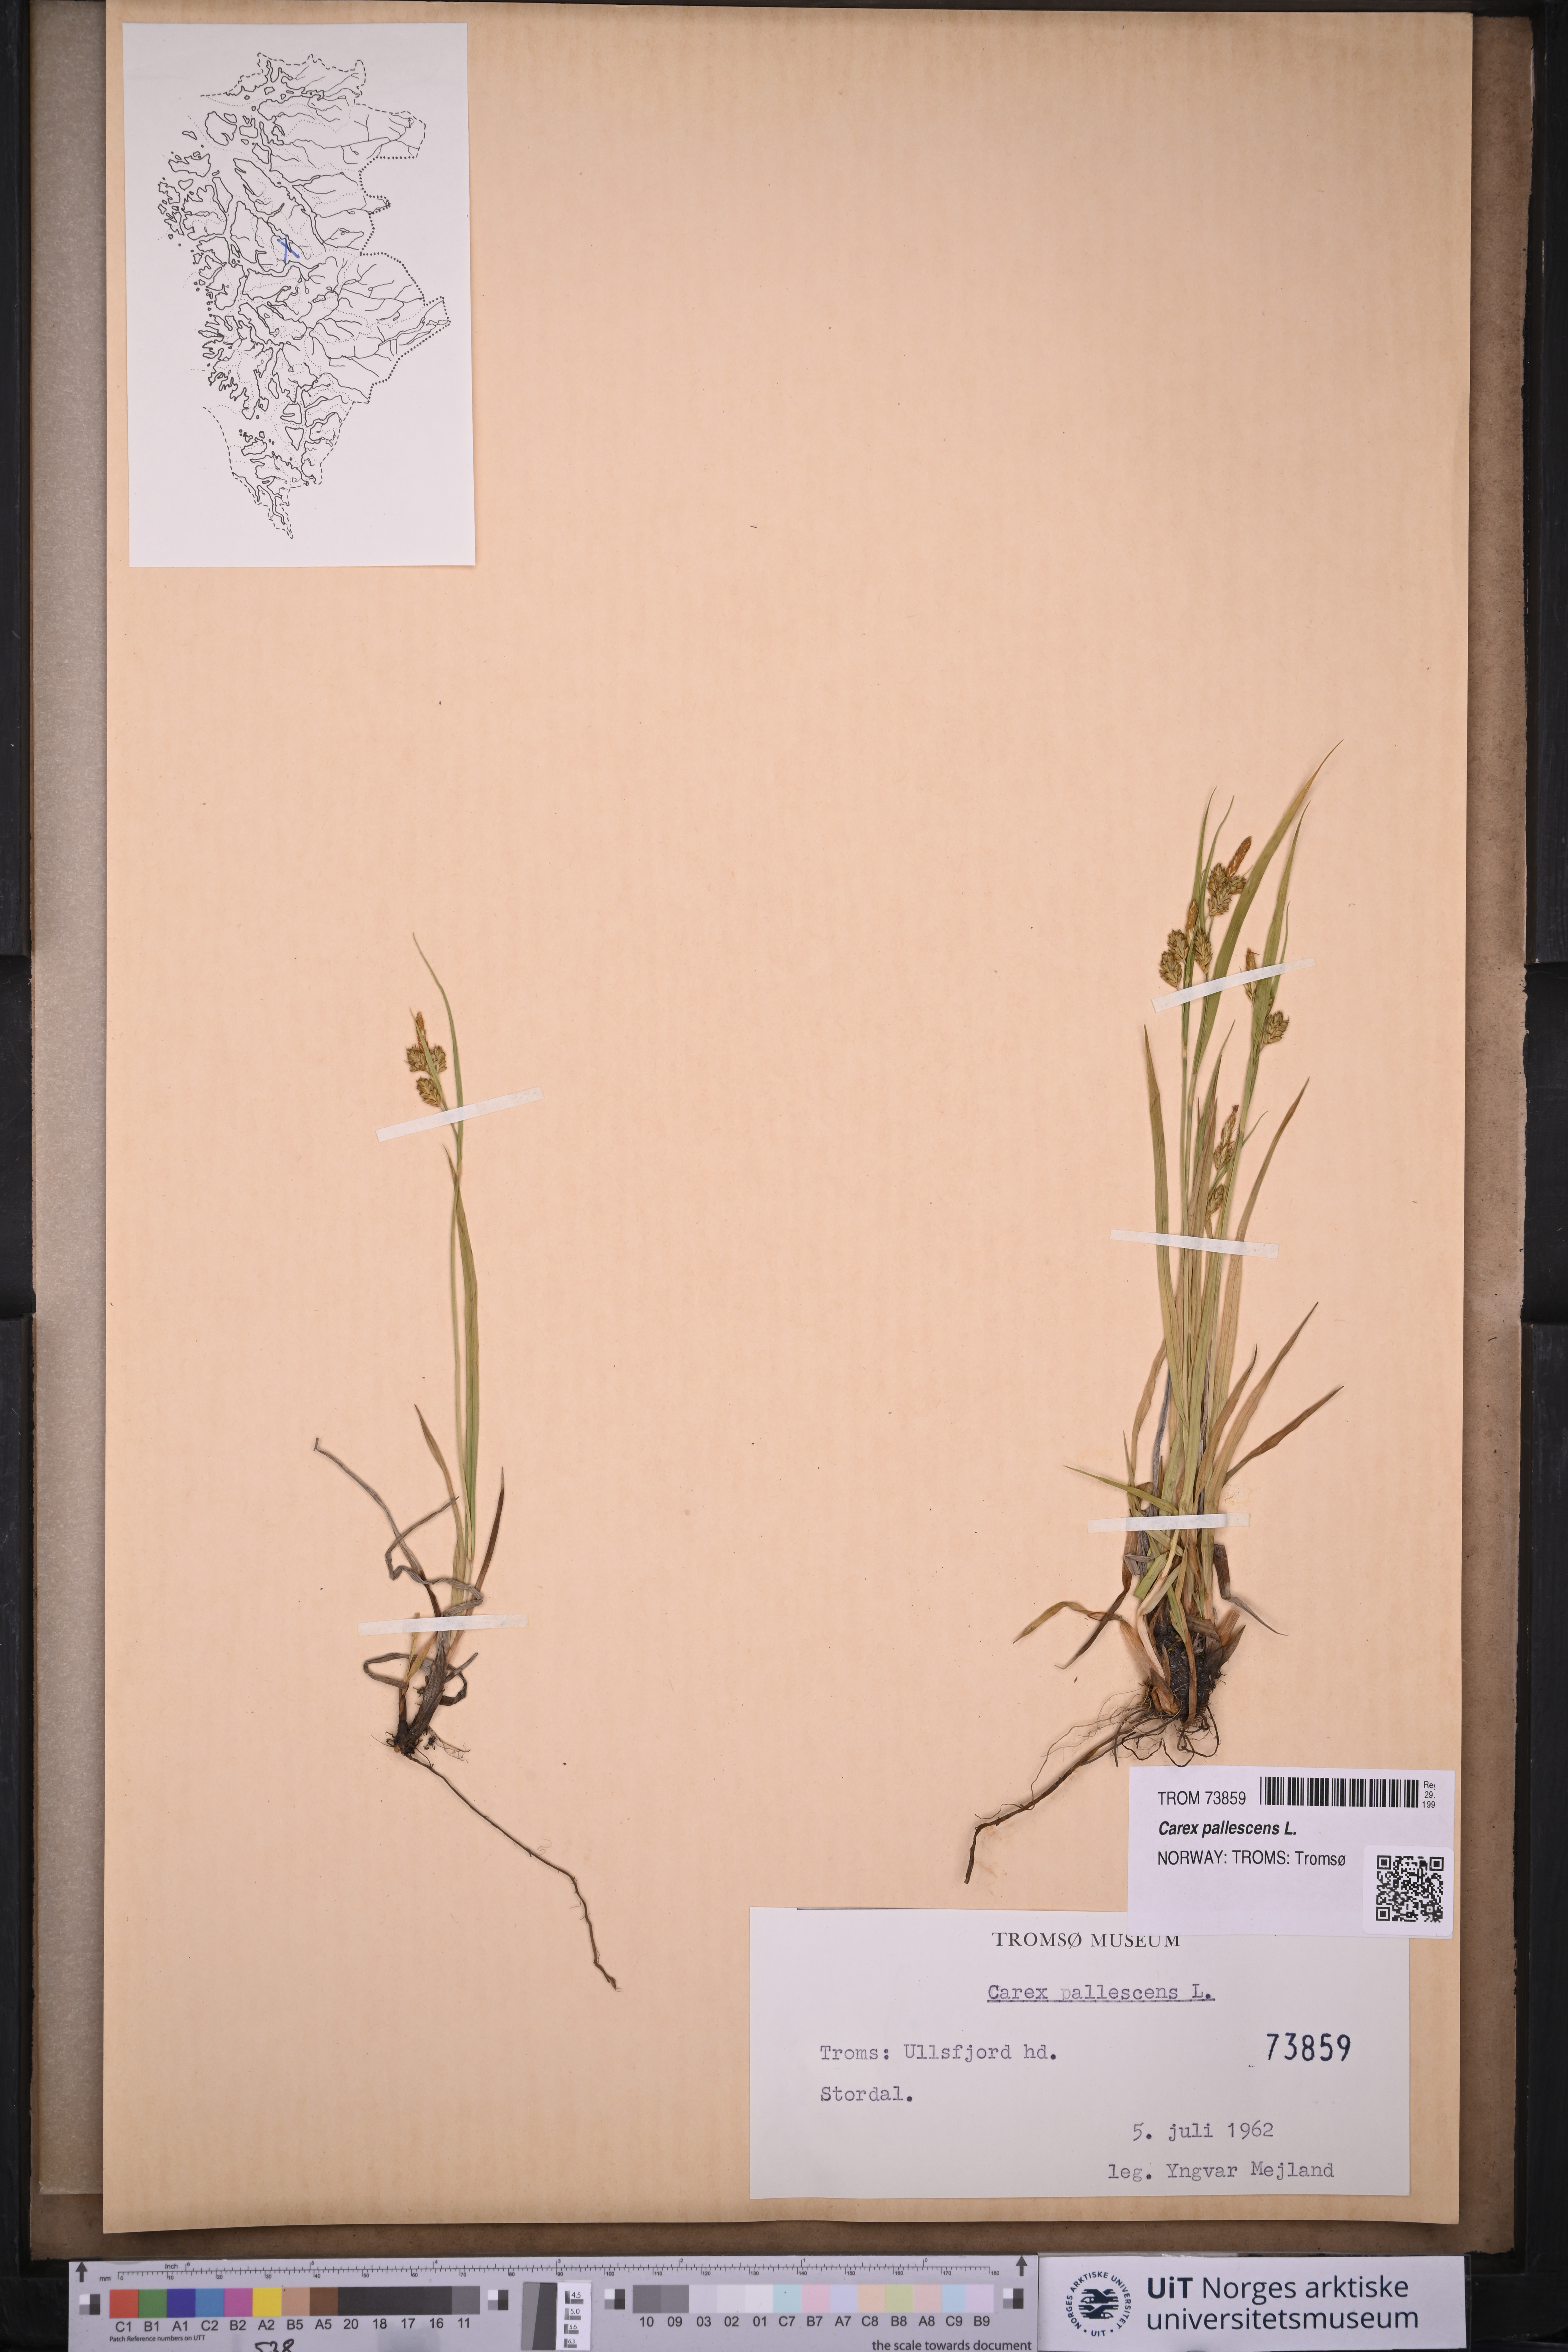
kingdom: Plantae
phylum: Tracheophyta
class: Liliopsida
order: Poales
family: Cyperaceae
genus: Carex
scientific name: Carex pallescens
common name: Pale sedge
